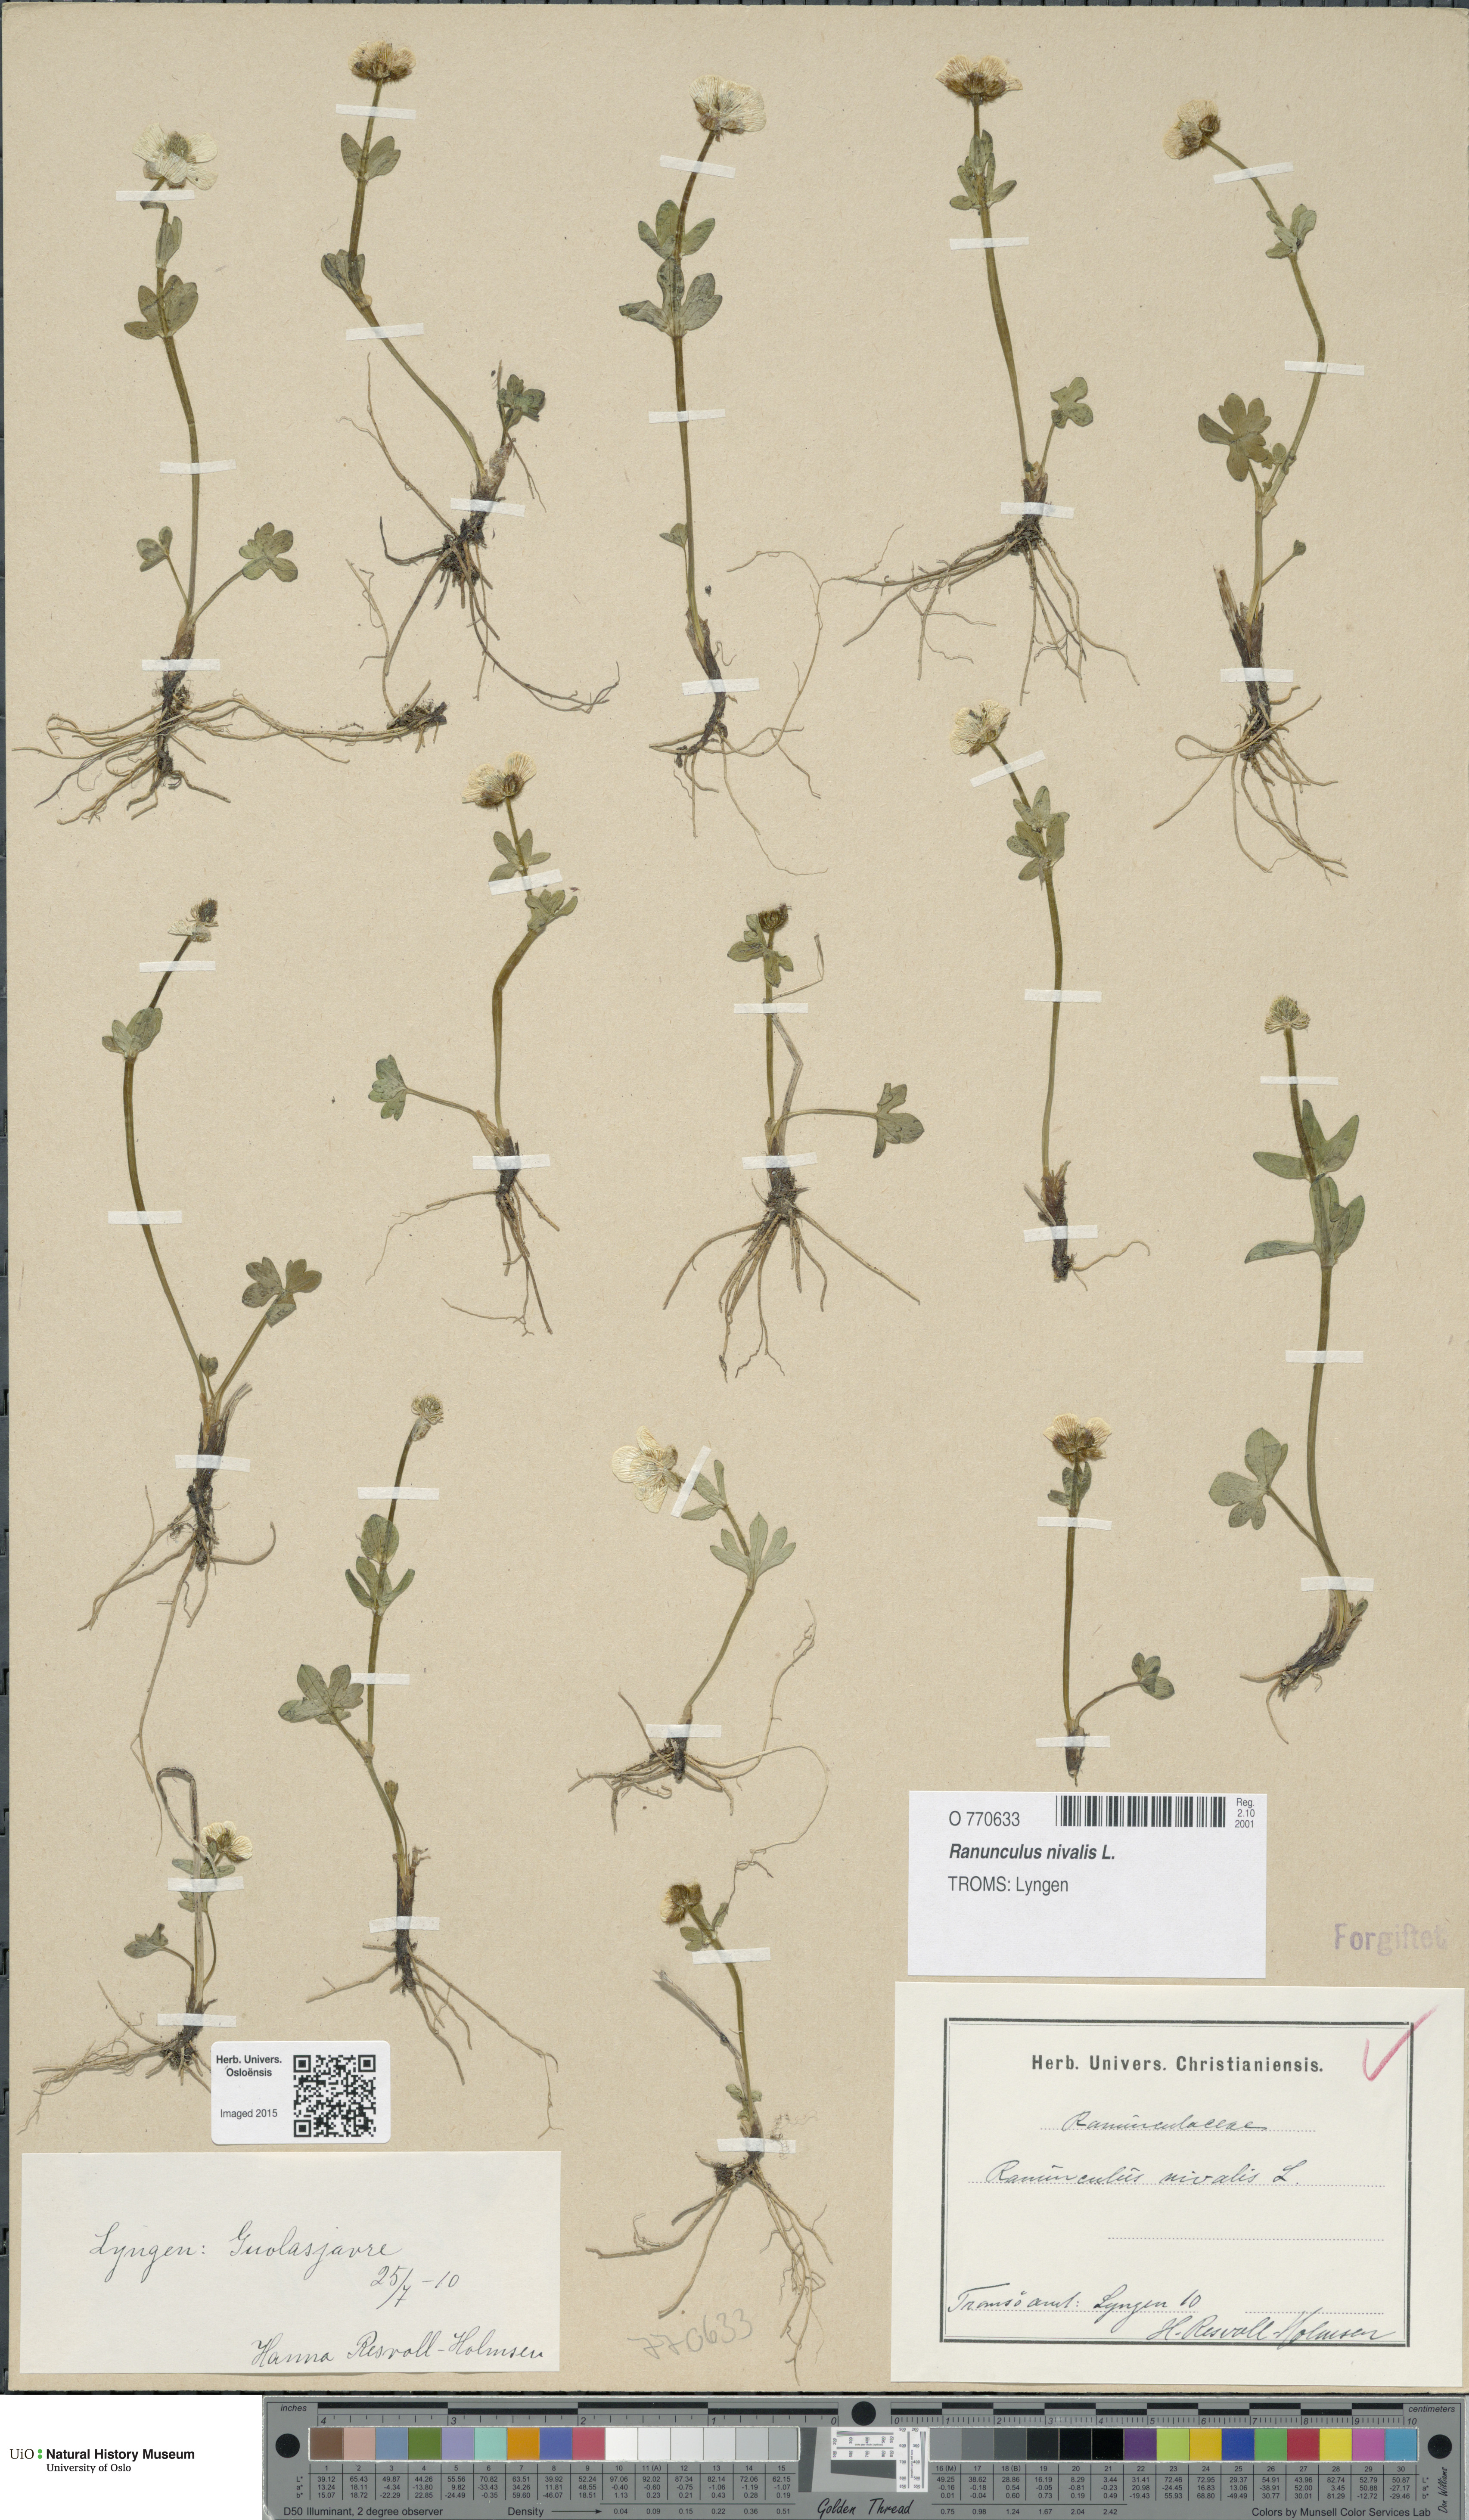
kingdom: Plantae
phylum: Tracheophyta
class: Magnoliopsida
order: Ranunculales
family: Ranunculaceae
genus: Ranunculus
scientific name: Ranunculus nivalis
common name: Snow buttercup
